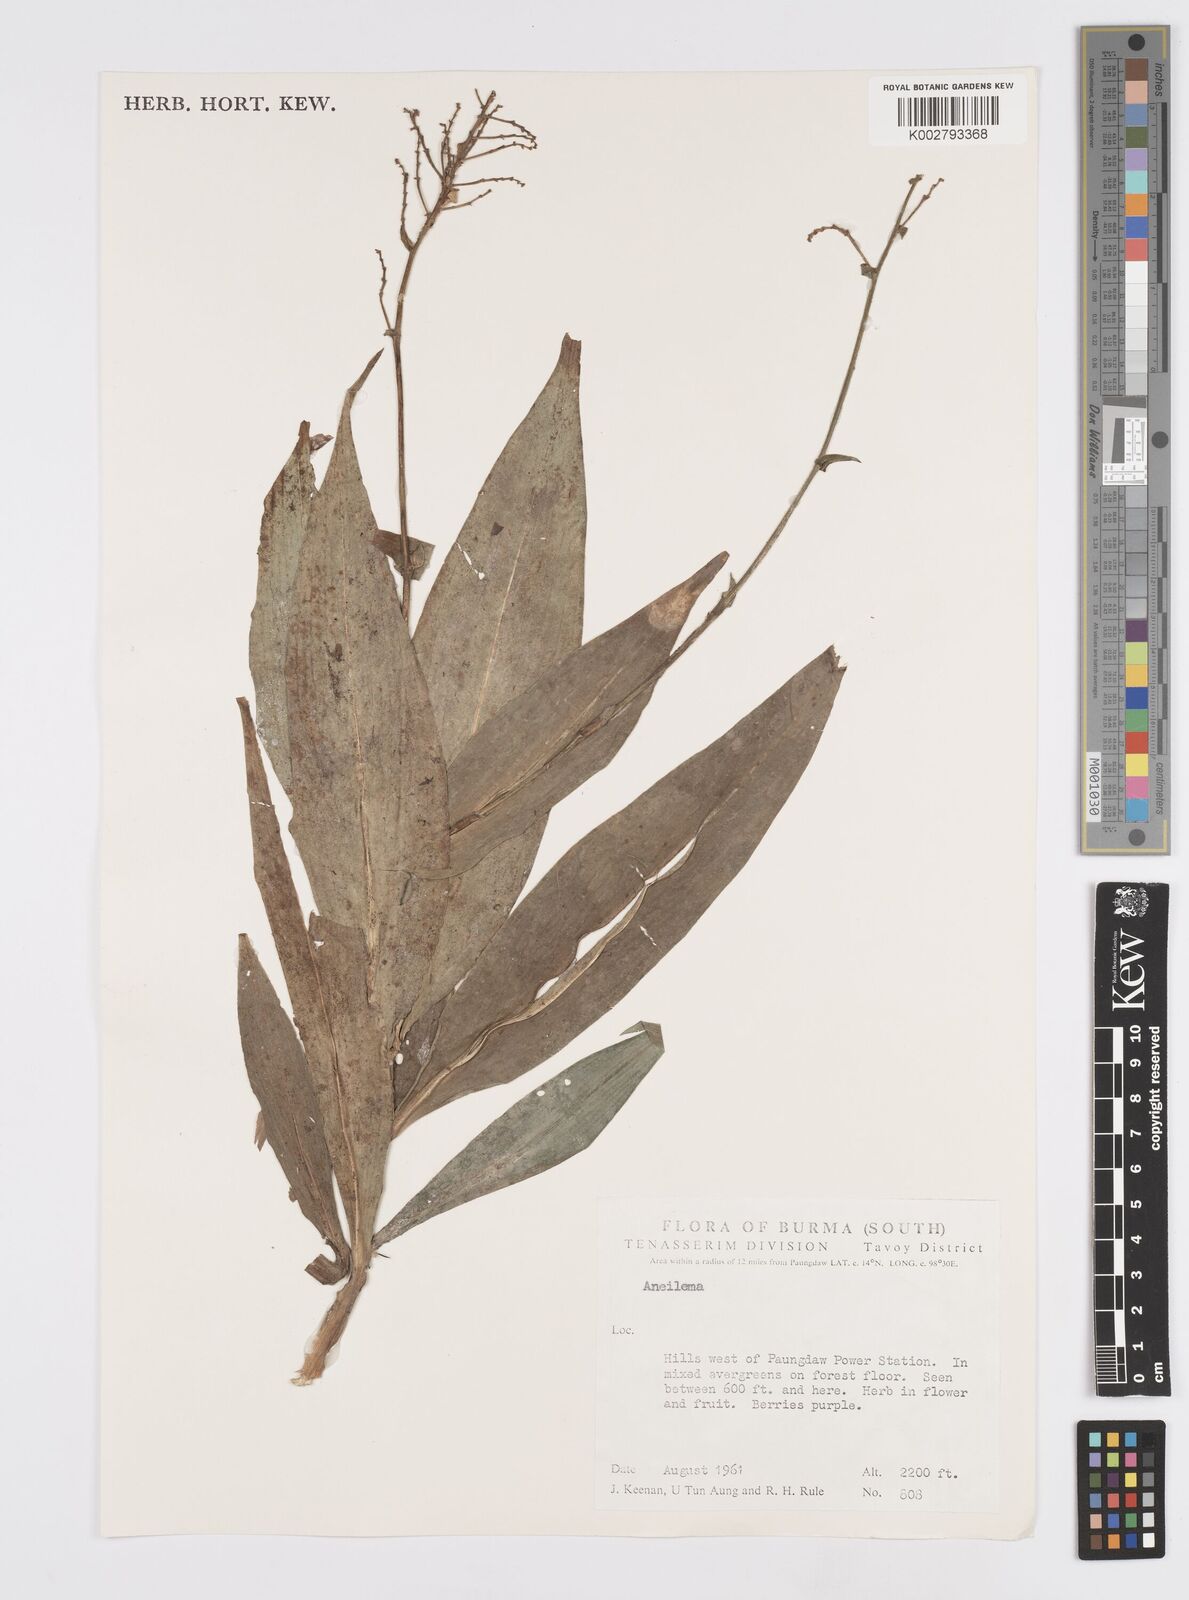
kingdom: Plantae
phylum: Tracheophyta
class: Liliopsida
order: Commelinales
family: Commelinaceae
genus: Murdannia
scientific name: Murdannia
